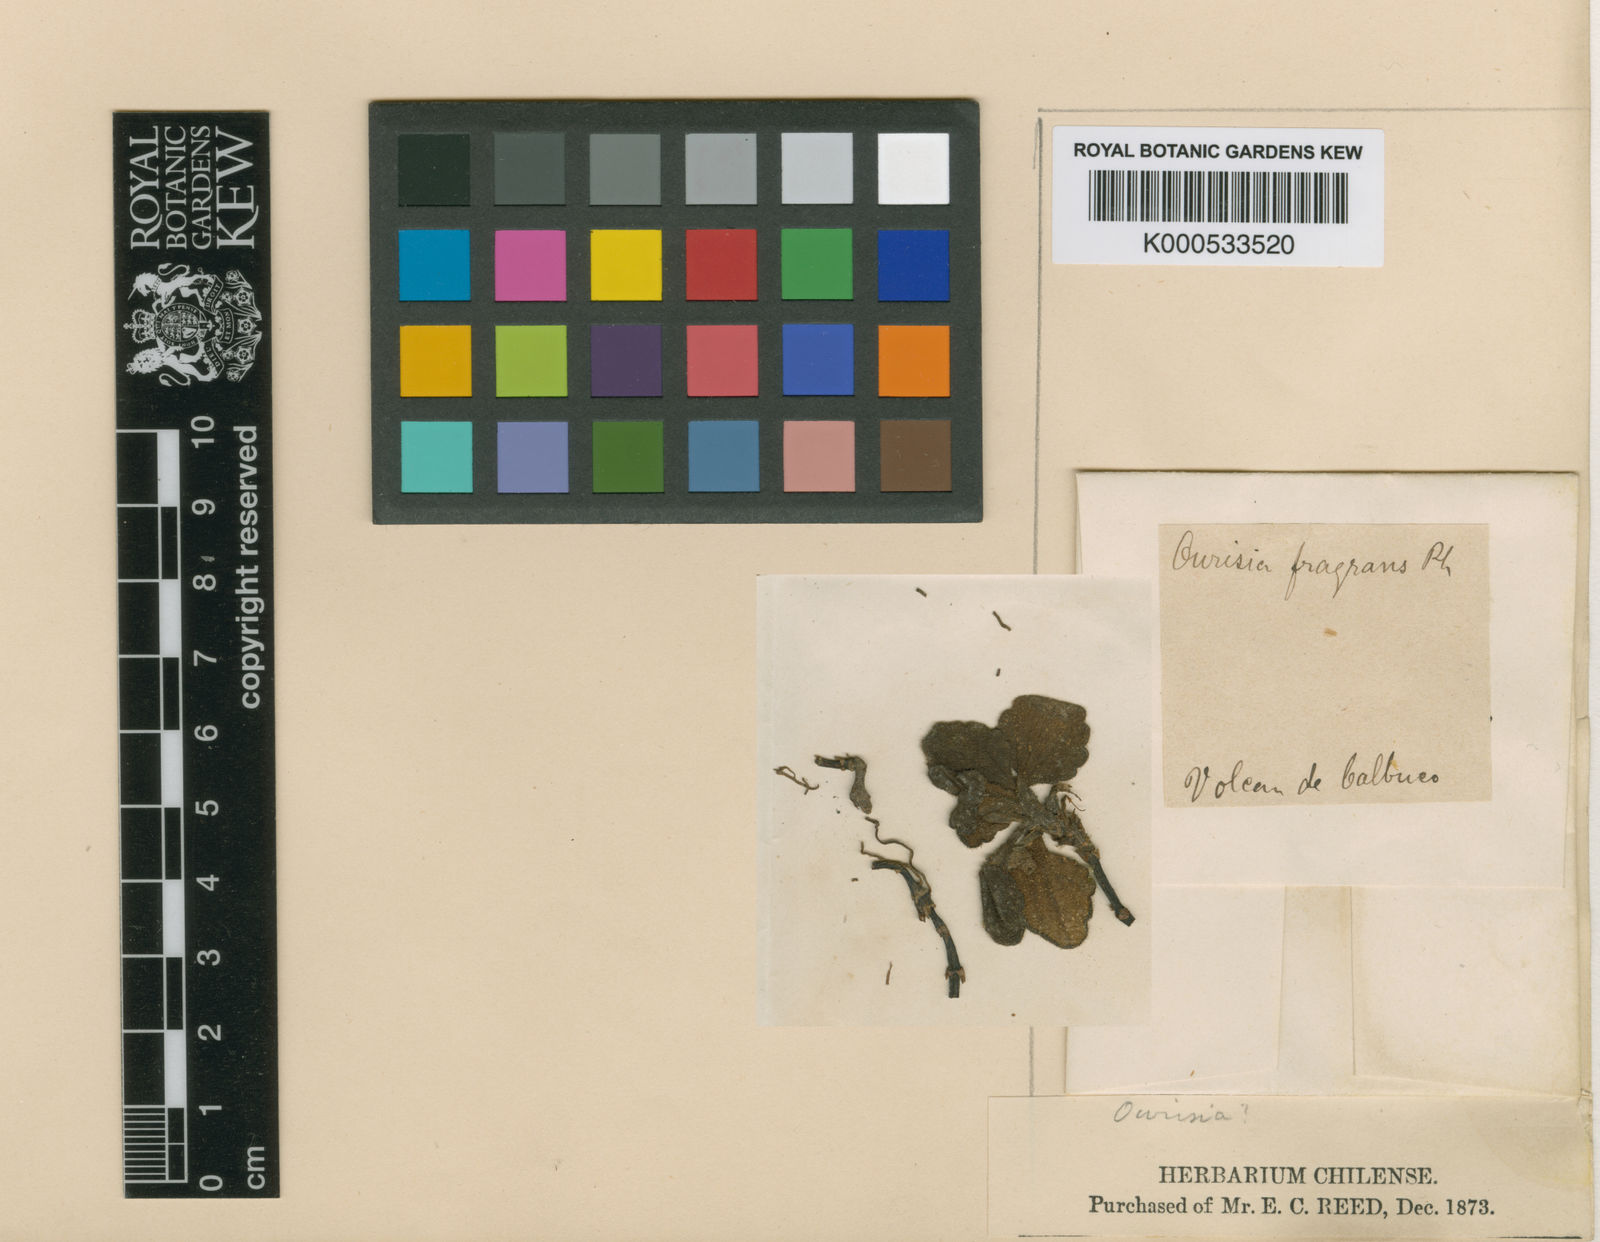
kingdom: Plantae
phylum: Tracheophyta
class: Magnoliopsida
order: Lamiales
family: Plantaginaceae
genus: Ourisia
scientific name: Ourisia fragrans
